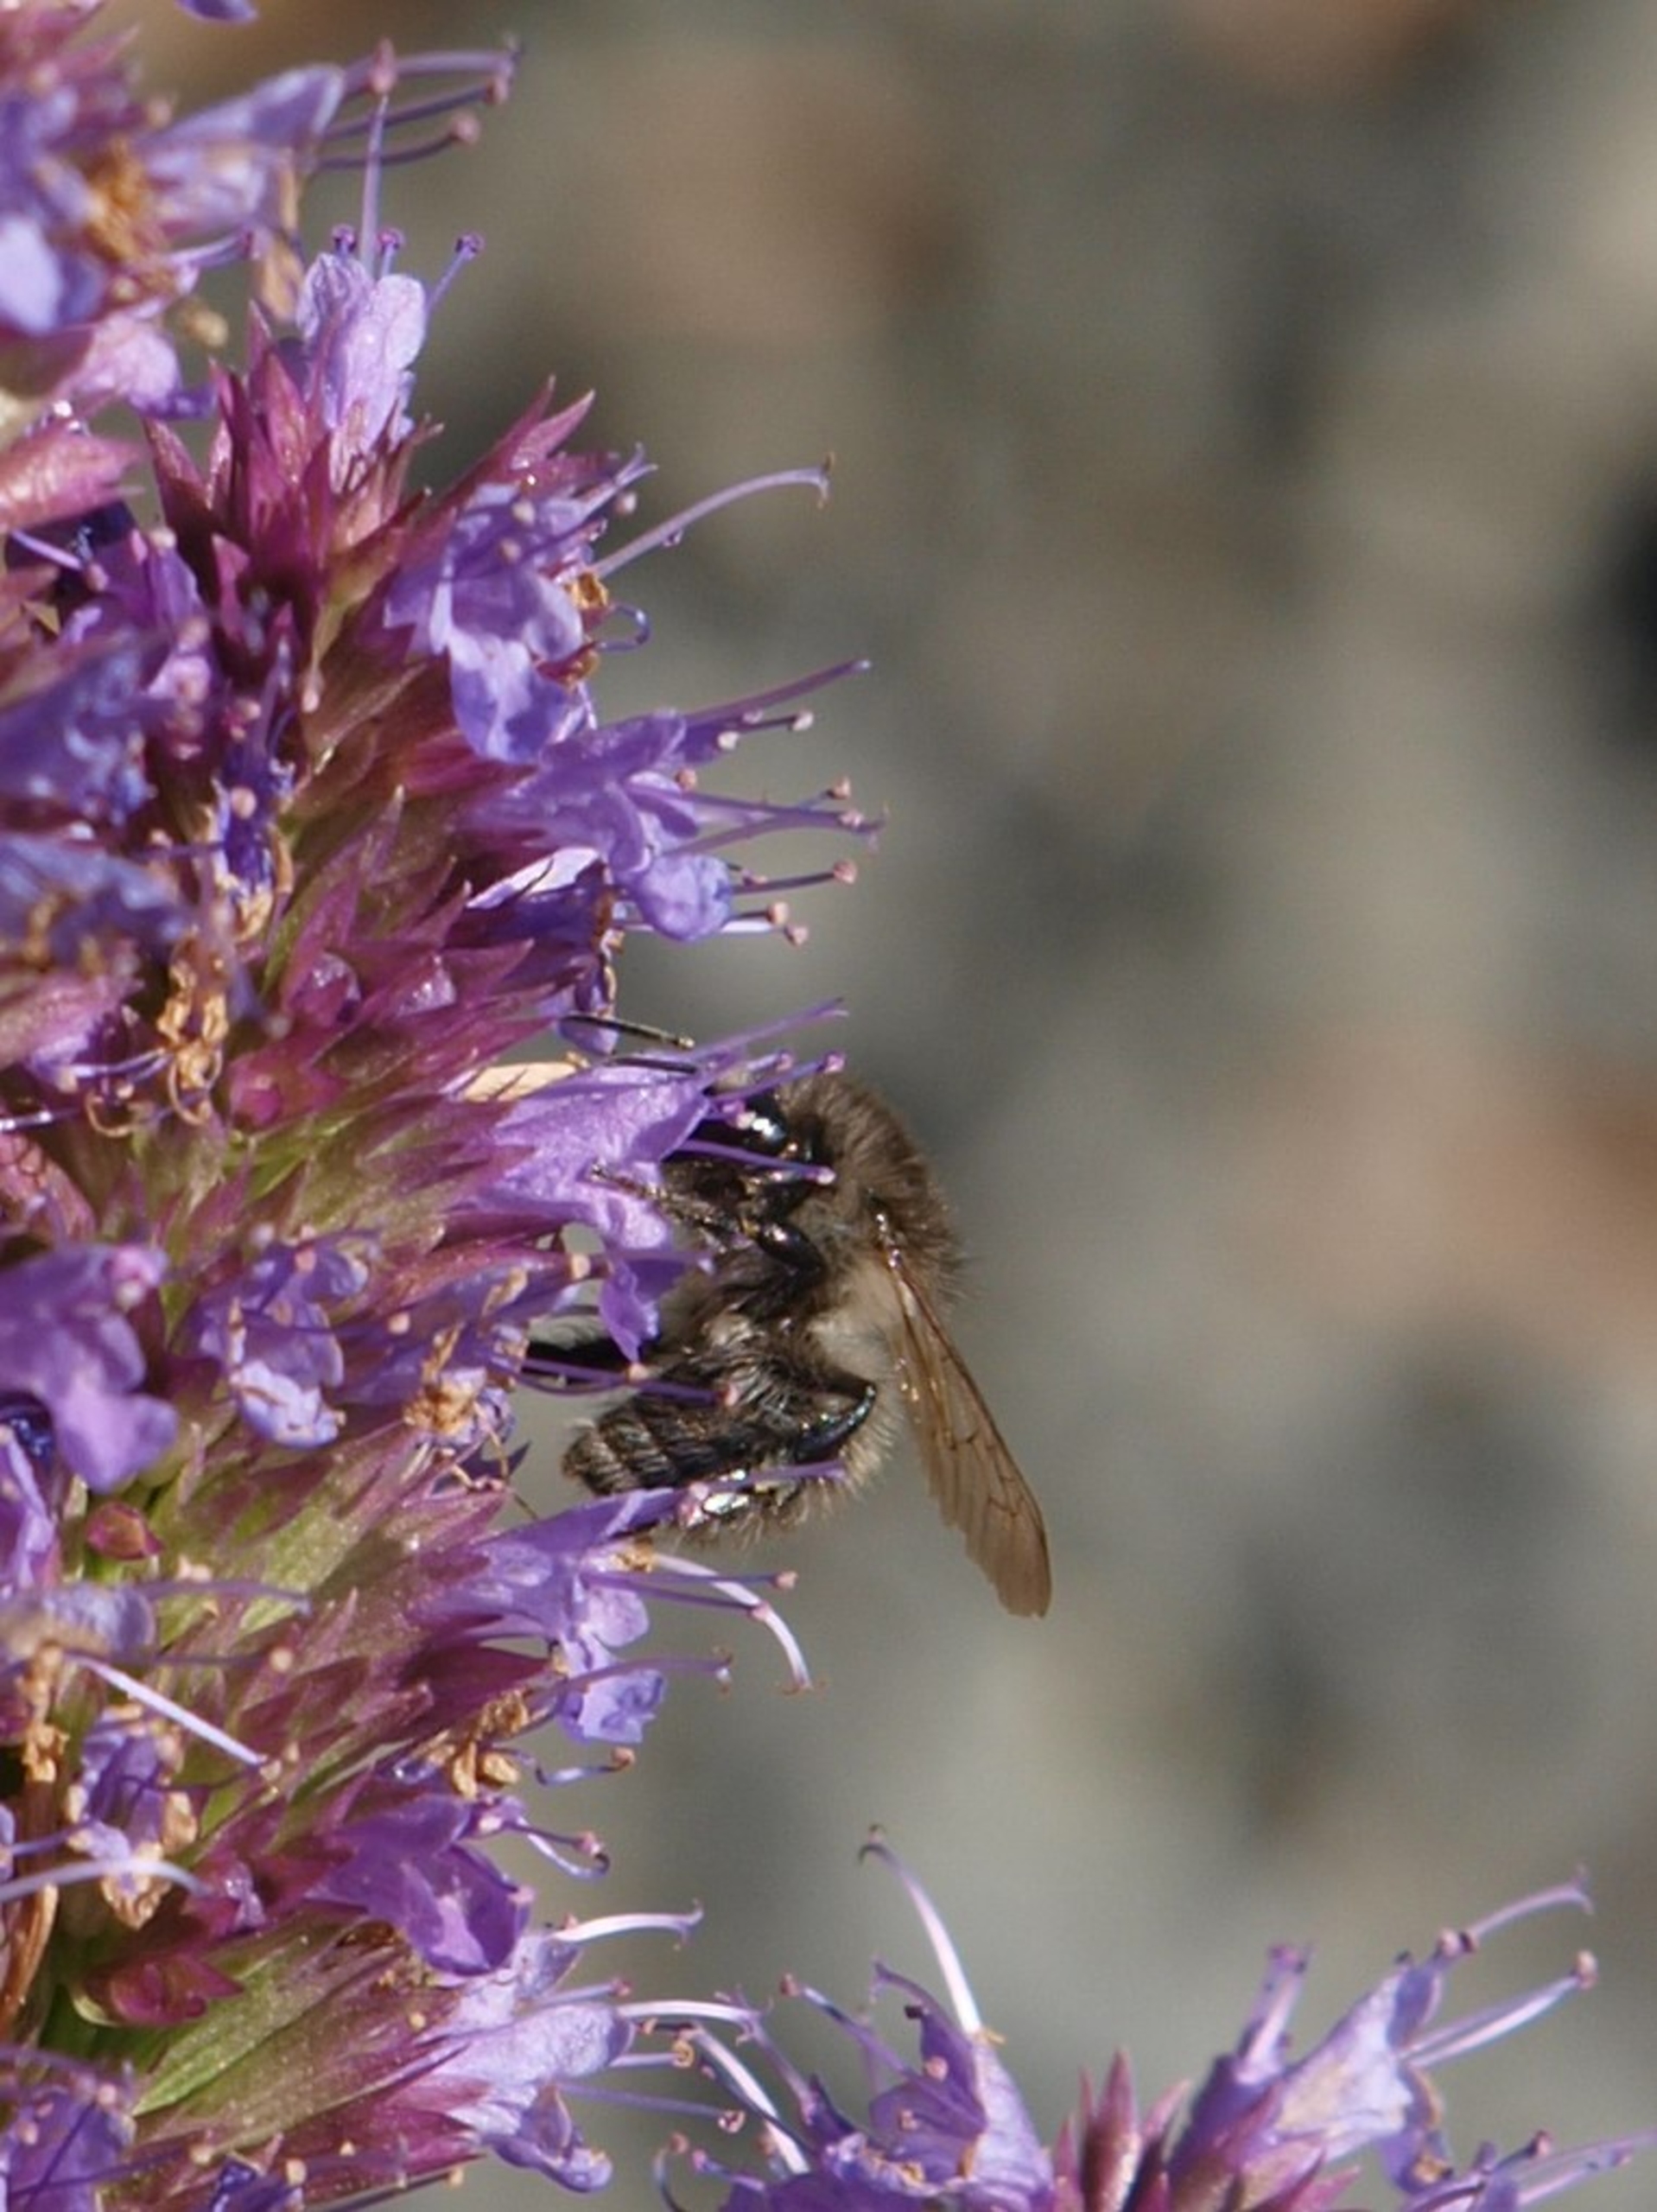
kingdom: Animalia
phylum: Arthropoda
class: Insecta
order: Hymenoptera
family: Apidae
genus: Bombus
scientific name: Bombus pascuorum
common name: Agerhumle
